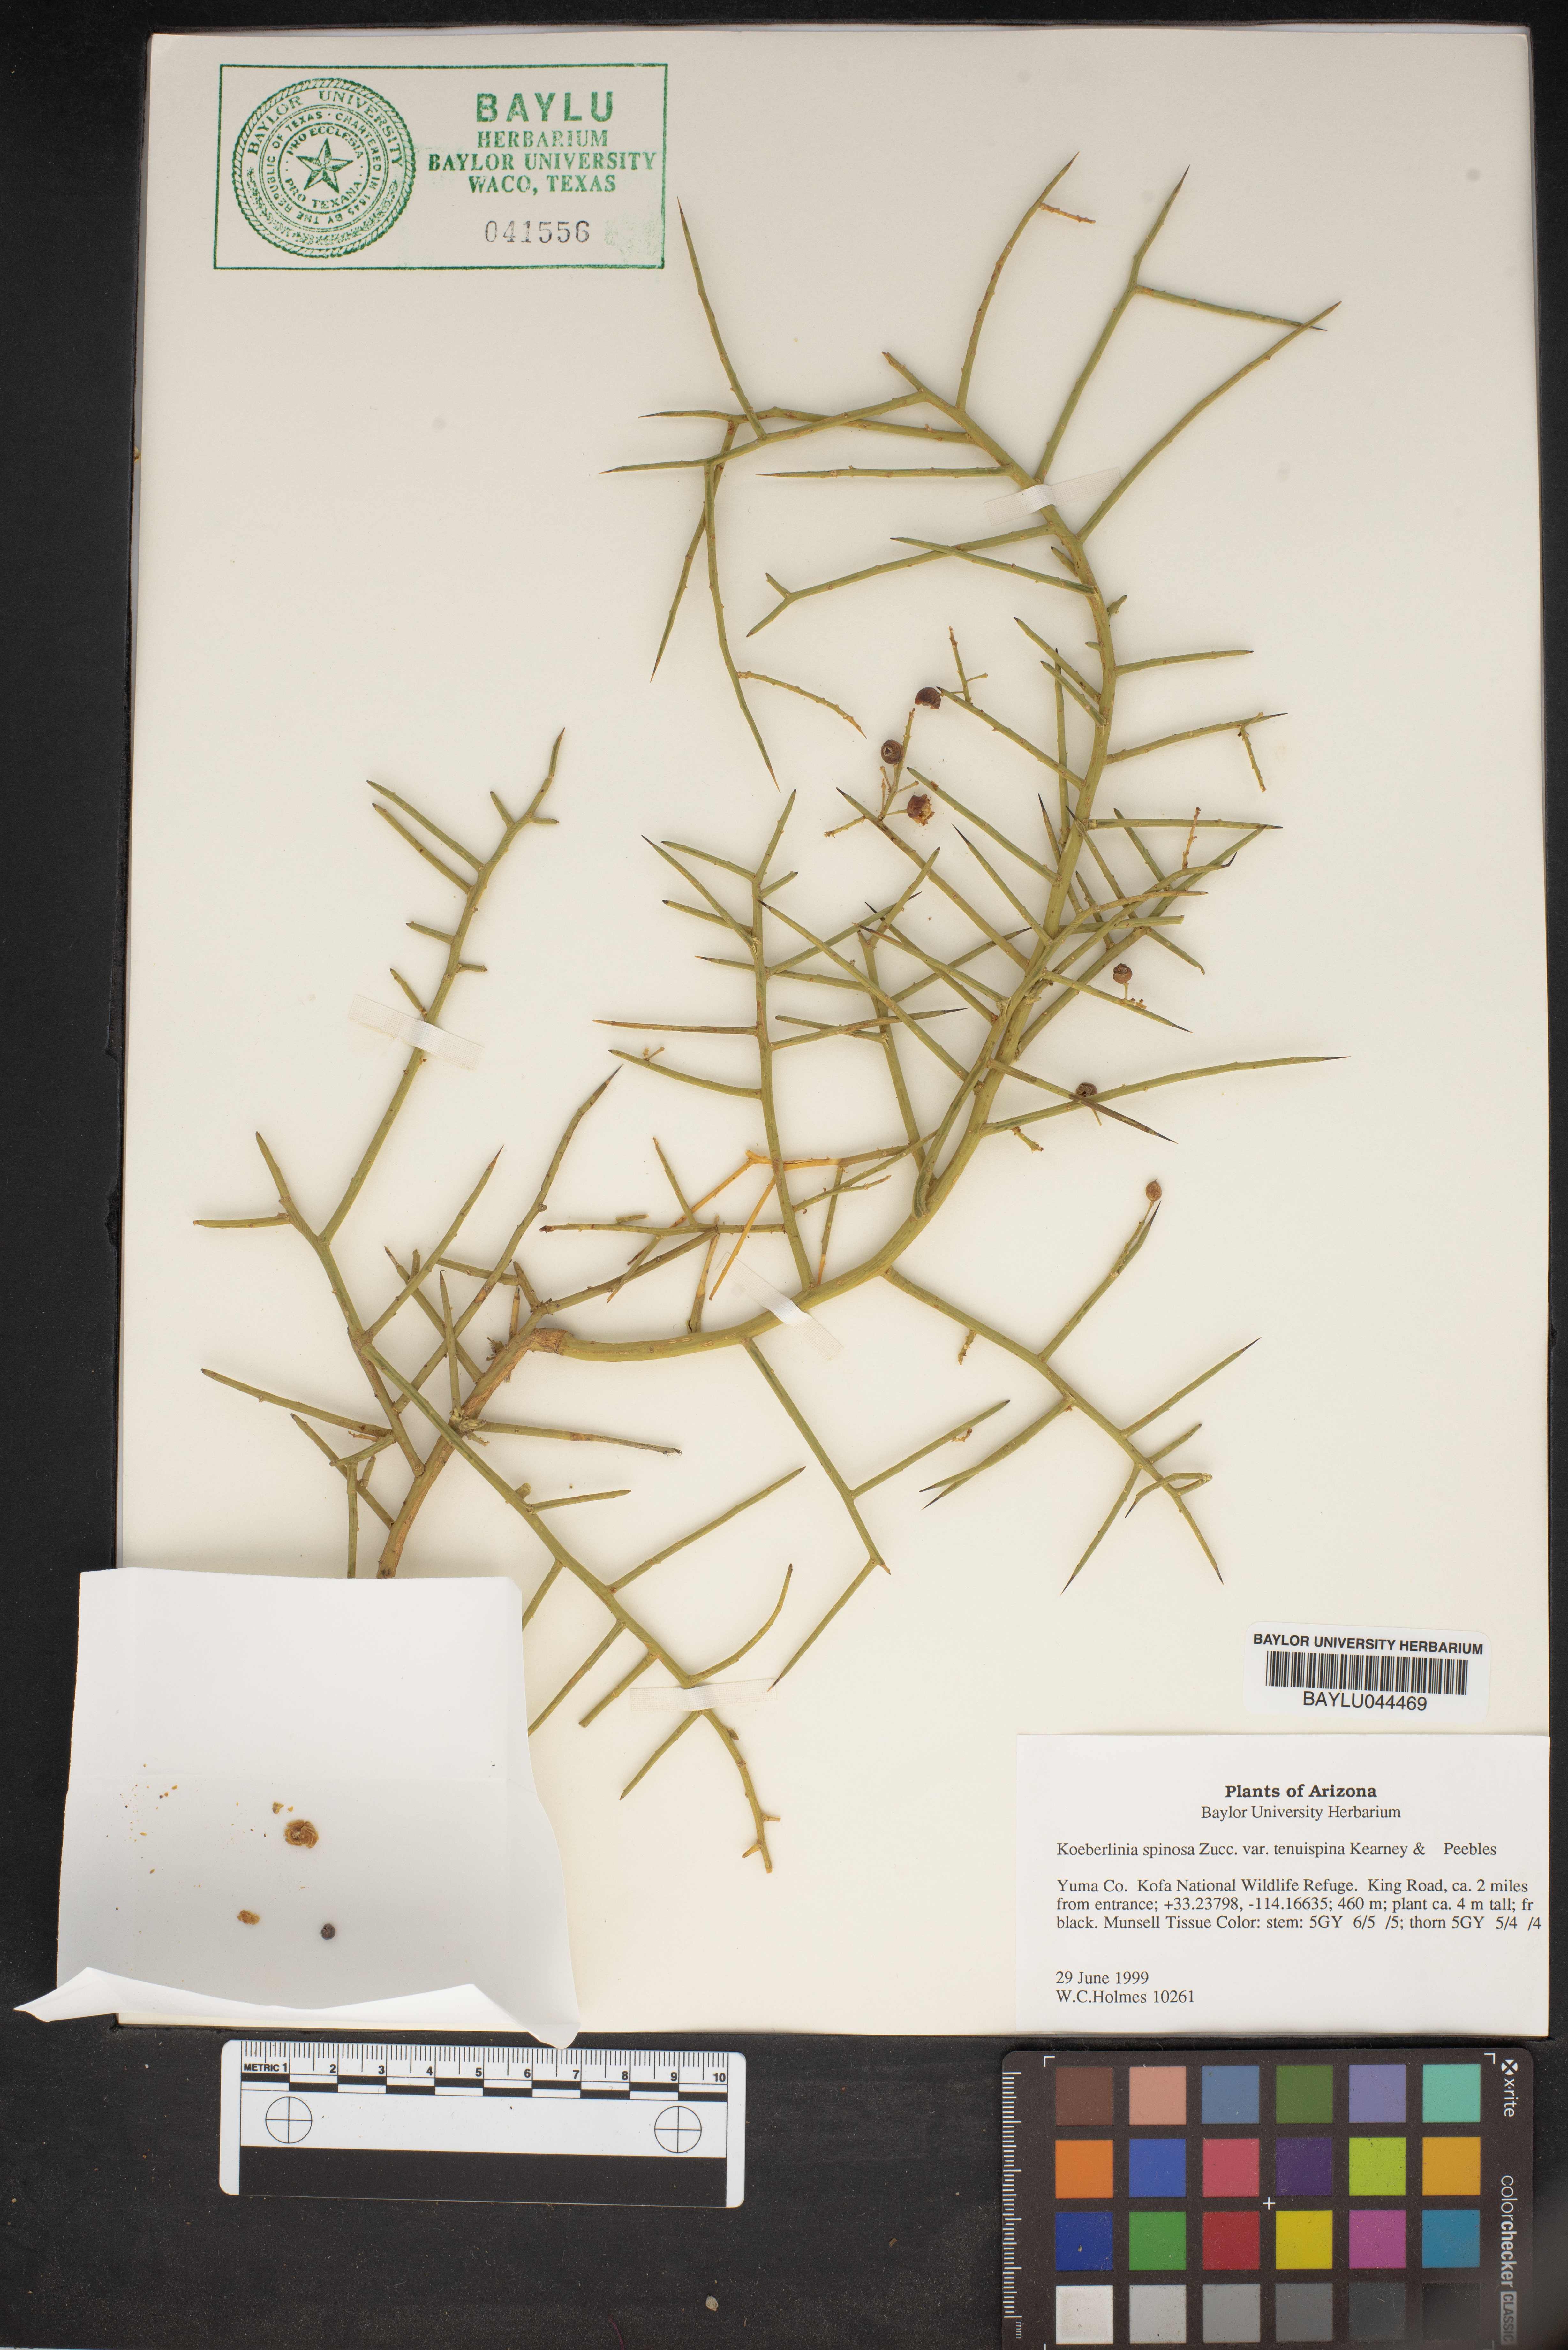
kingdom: Plantae
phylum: Tracheophyta
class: Magnoliopsida
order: Brassicales
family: Koeberliniaceae
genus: Koeberlinia
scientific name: Koeberlinia spinosa
